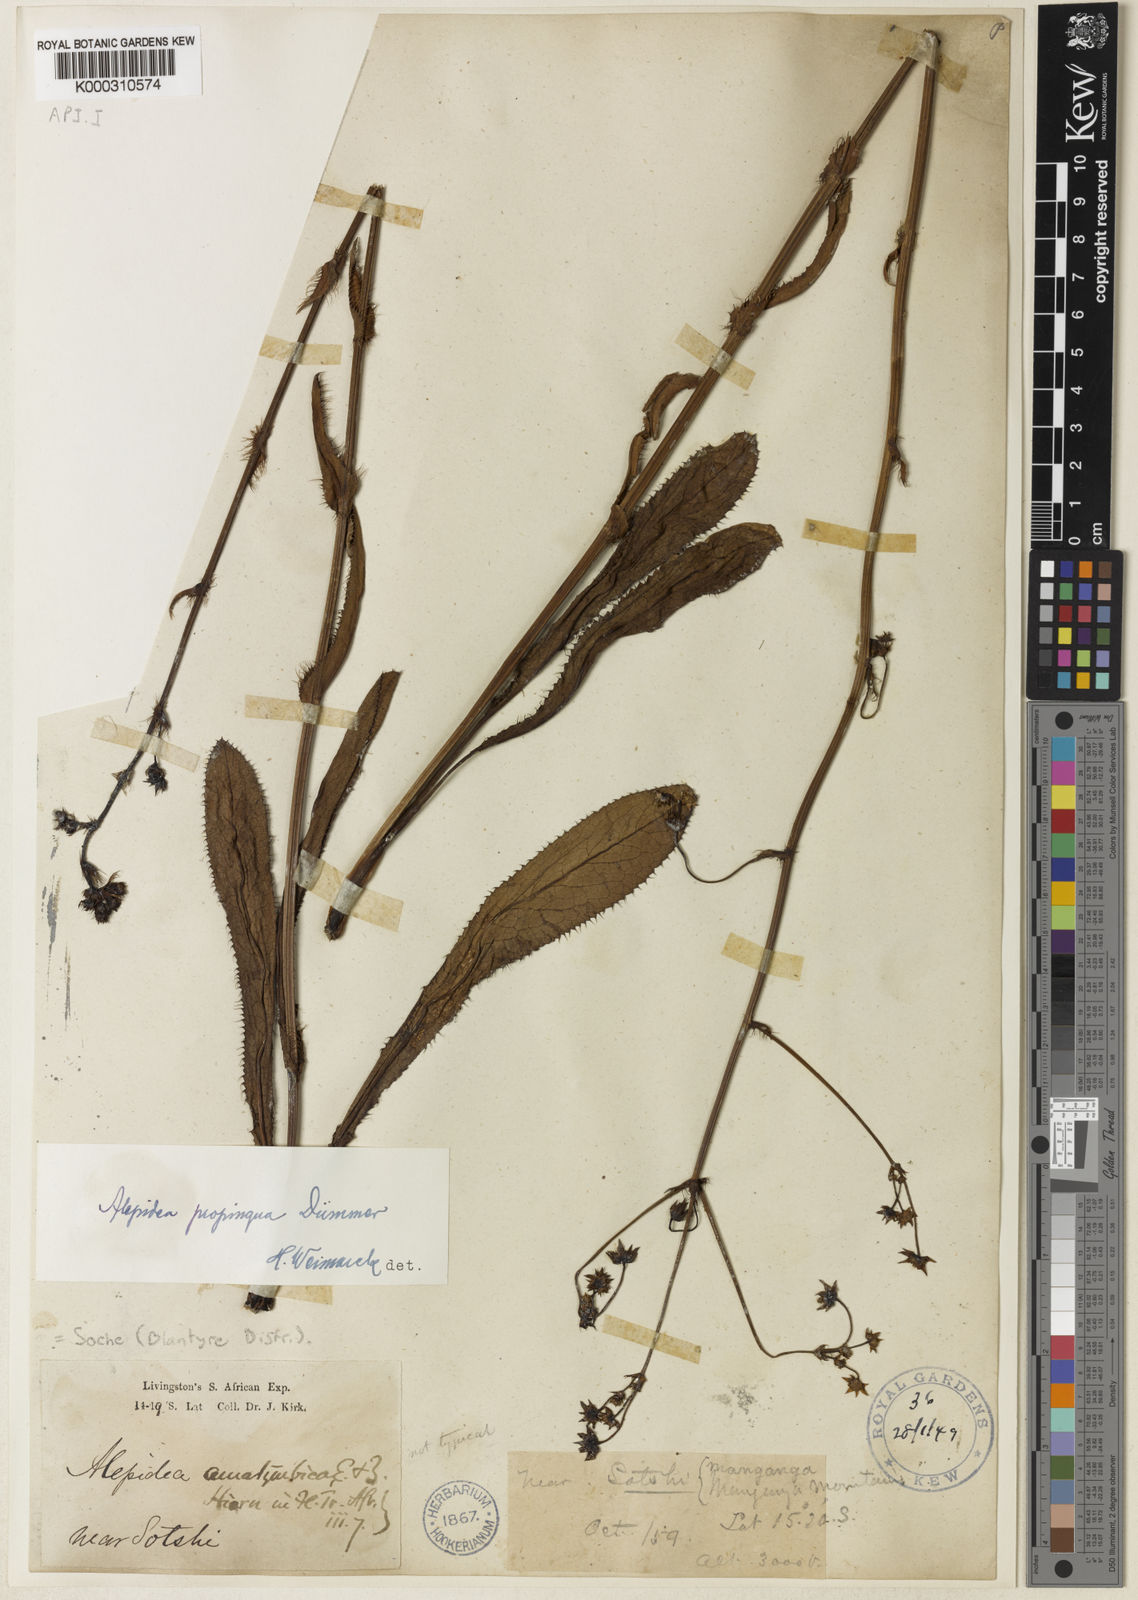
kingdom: Plantae
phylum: Tracheophyta
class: Magnoliopsida
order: Apiales
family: Apiaceae
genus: Alepidea
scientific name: Alepidea
